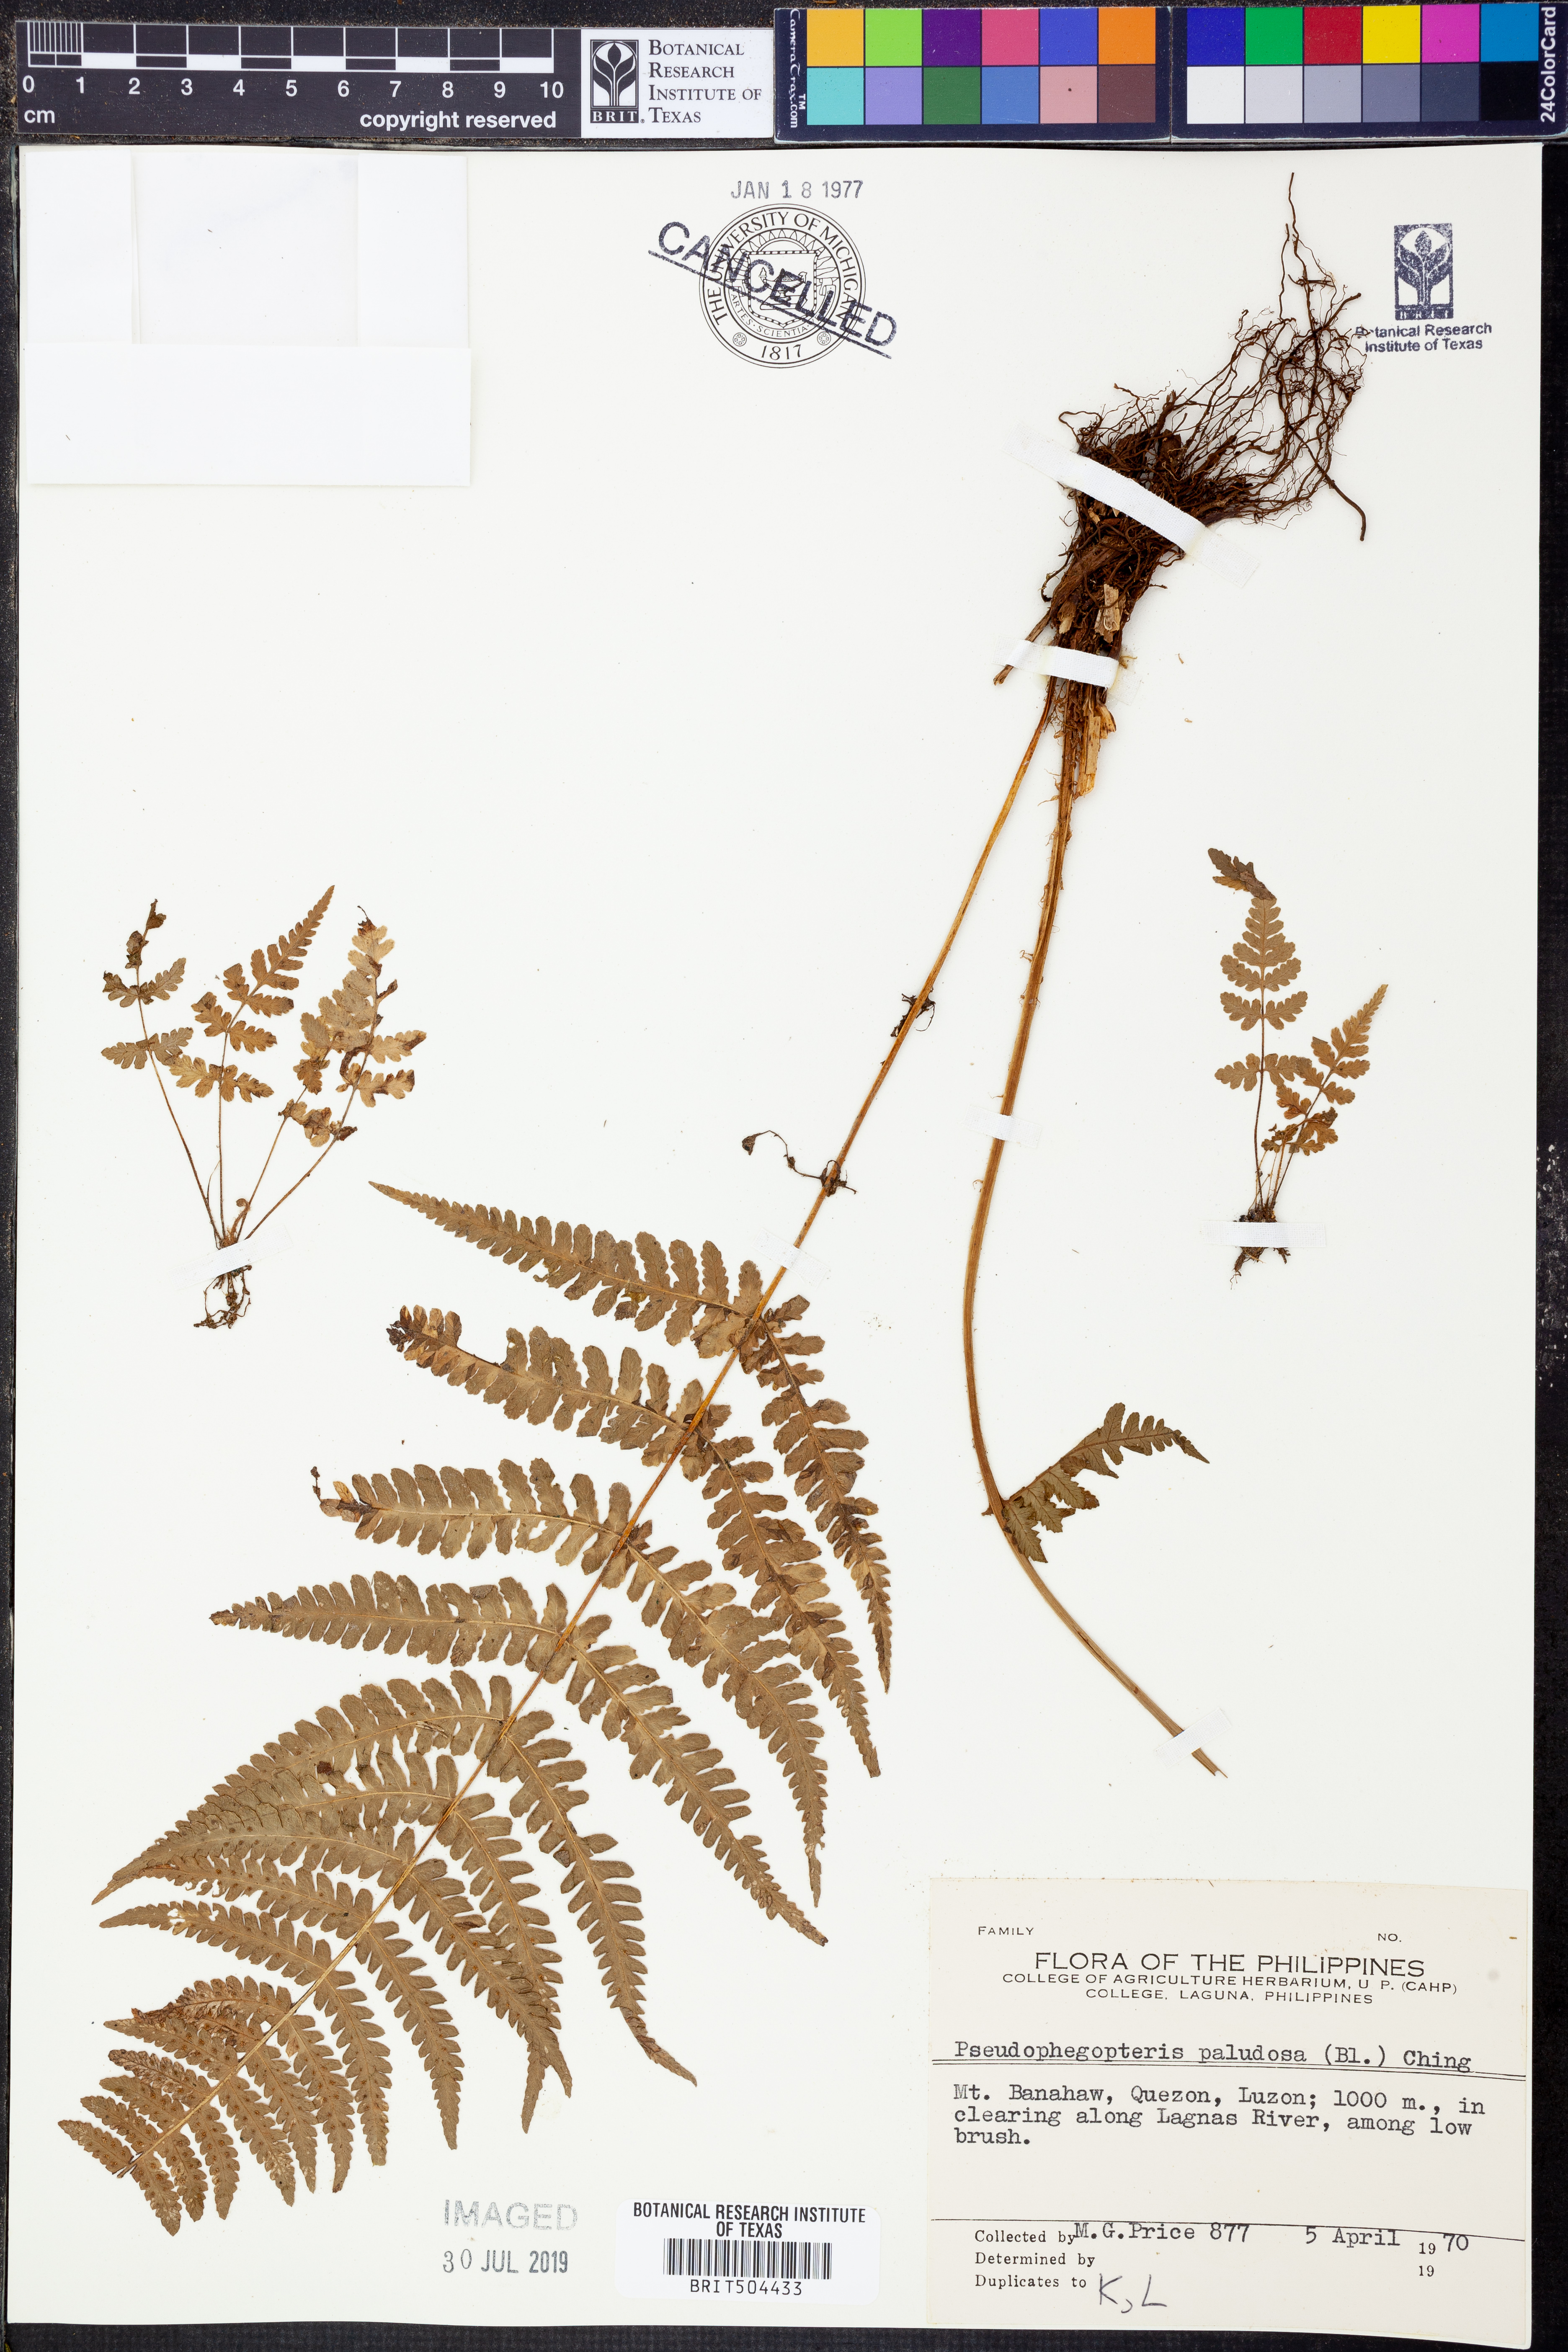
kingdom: Plantae
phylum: Tracheophyta
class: Polypodiopsida
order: Polypodiales
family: Thelypteridaceae
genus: Pseudophegopteris
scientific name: Pseudophegopteris paludosa
